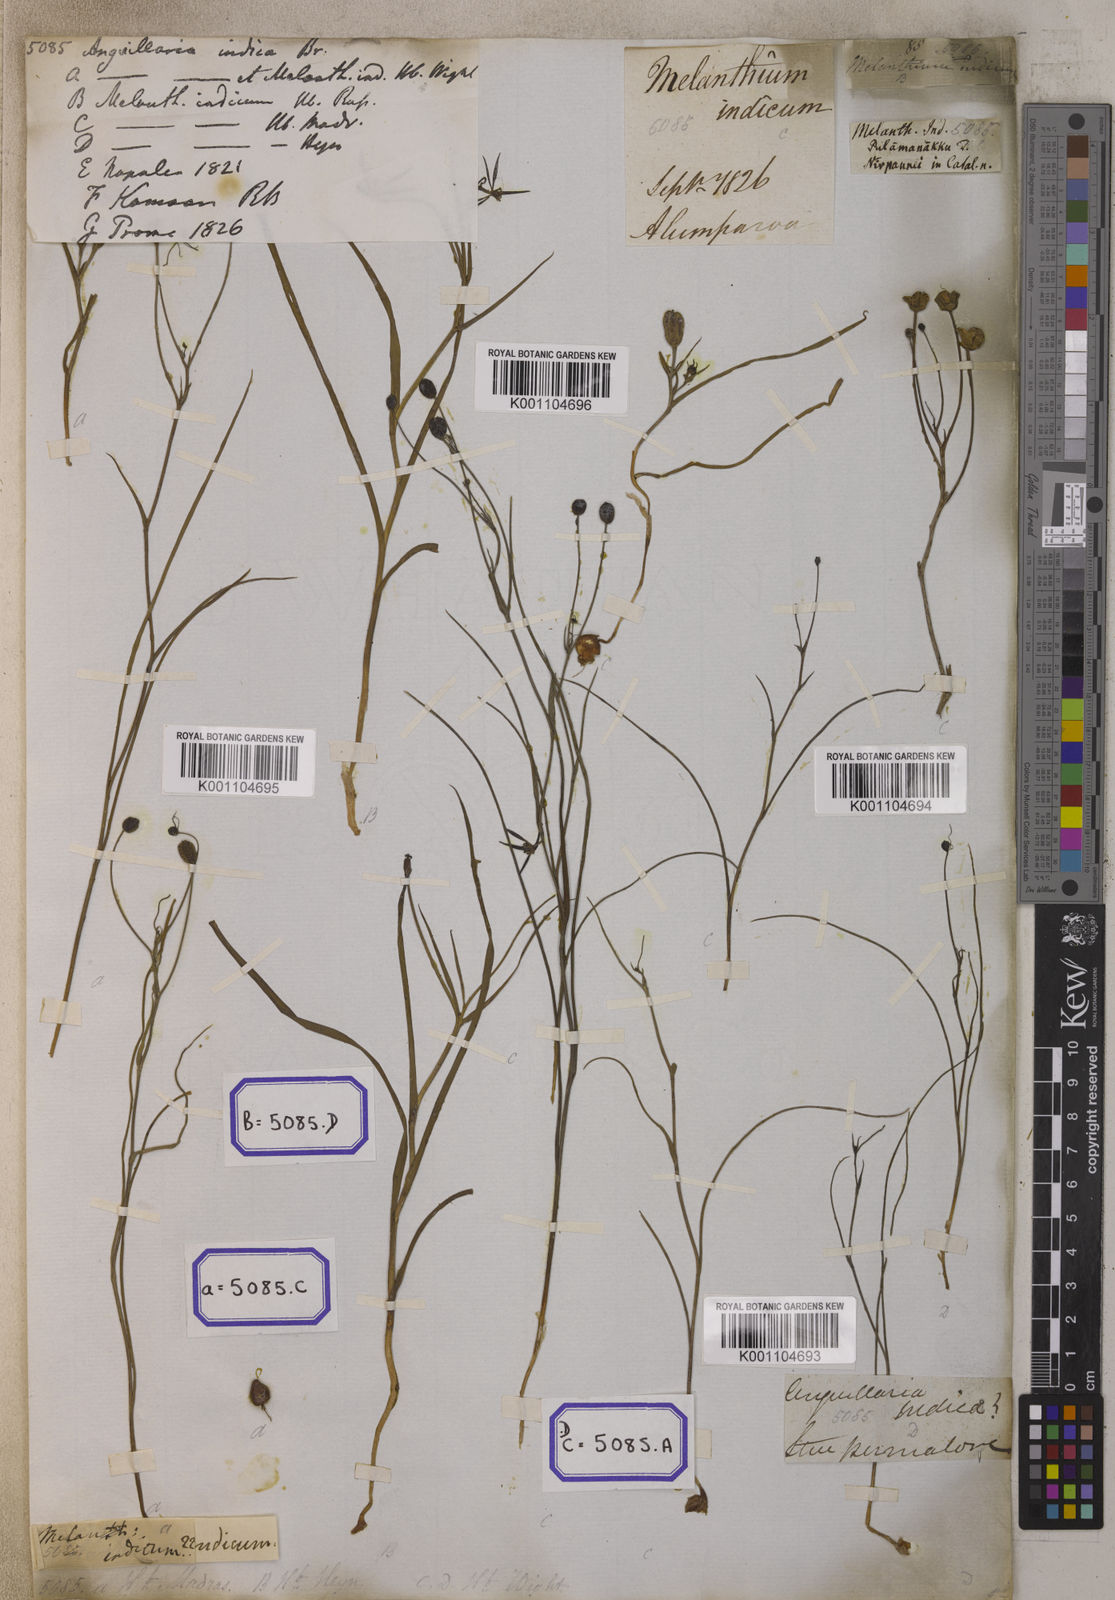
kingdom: Plantae
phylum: Tracheophyta
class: Liliopsida
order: Liliales
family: Colchicaceae
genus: Iphigenia
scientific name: Iphigenia indica
